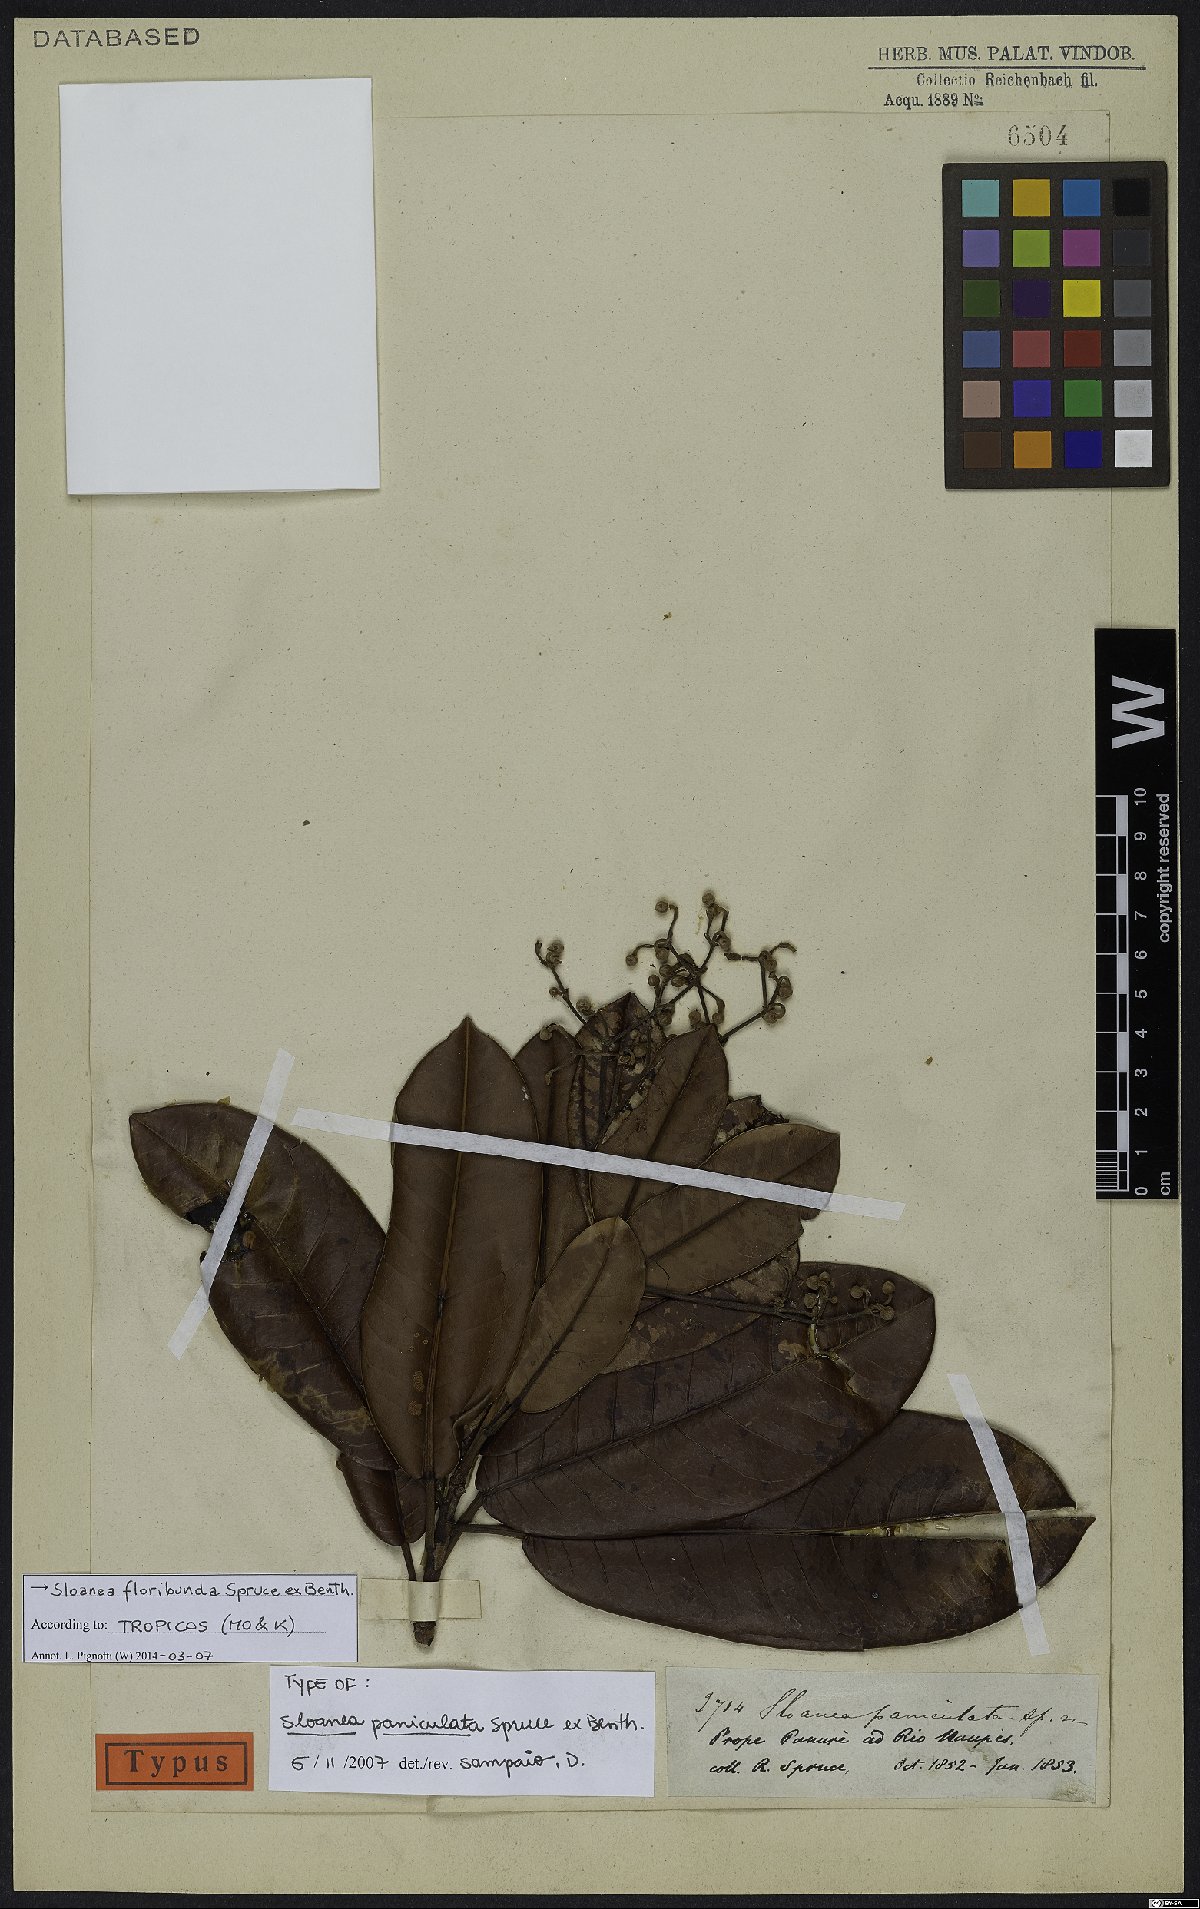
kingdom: Plantae
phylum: Tracheophyta
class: Magnoliopsida
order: Oxalidales
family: Elaeocarpaceae
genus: Sloanea
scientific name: Sloanea floribunda
